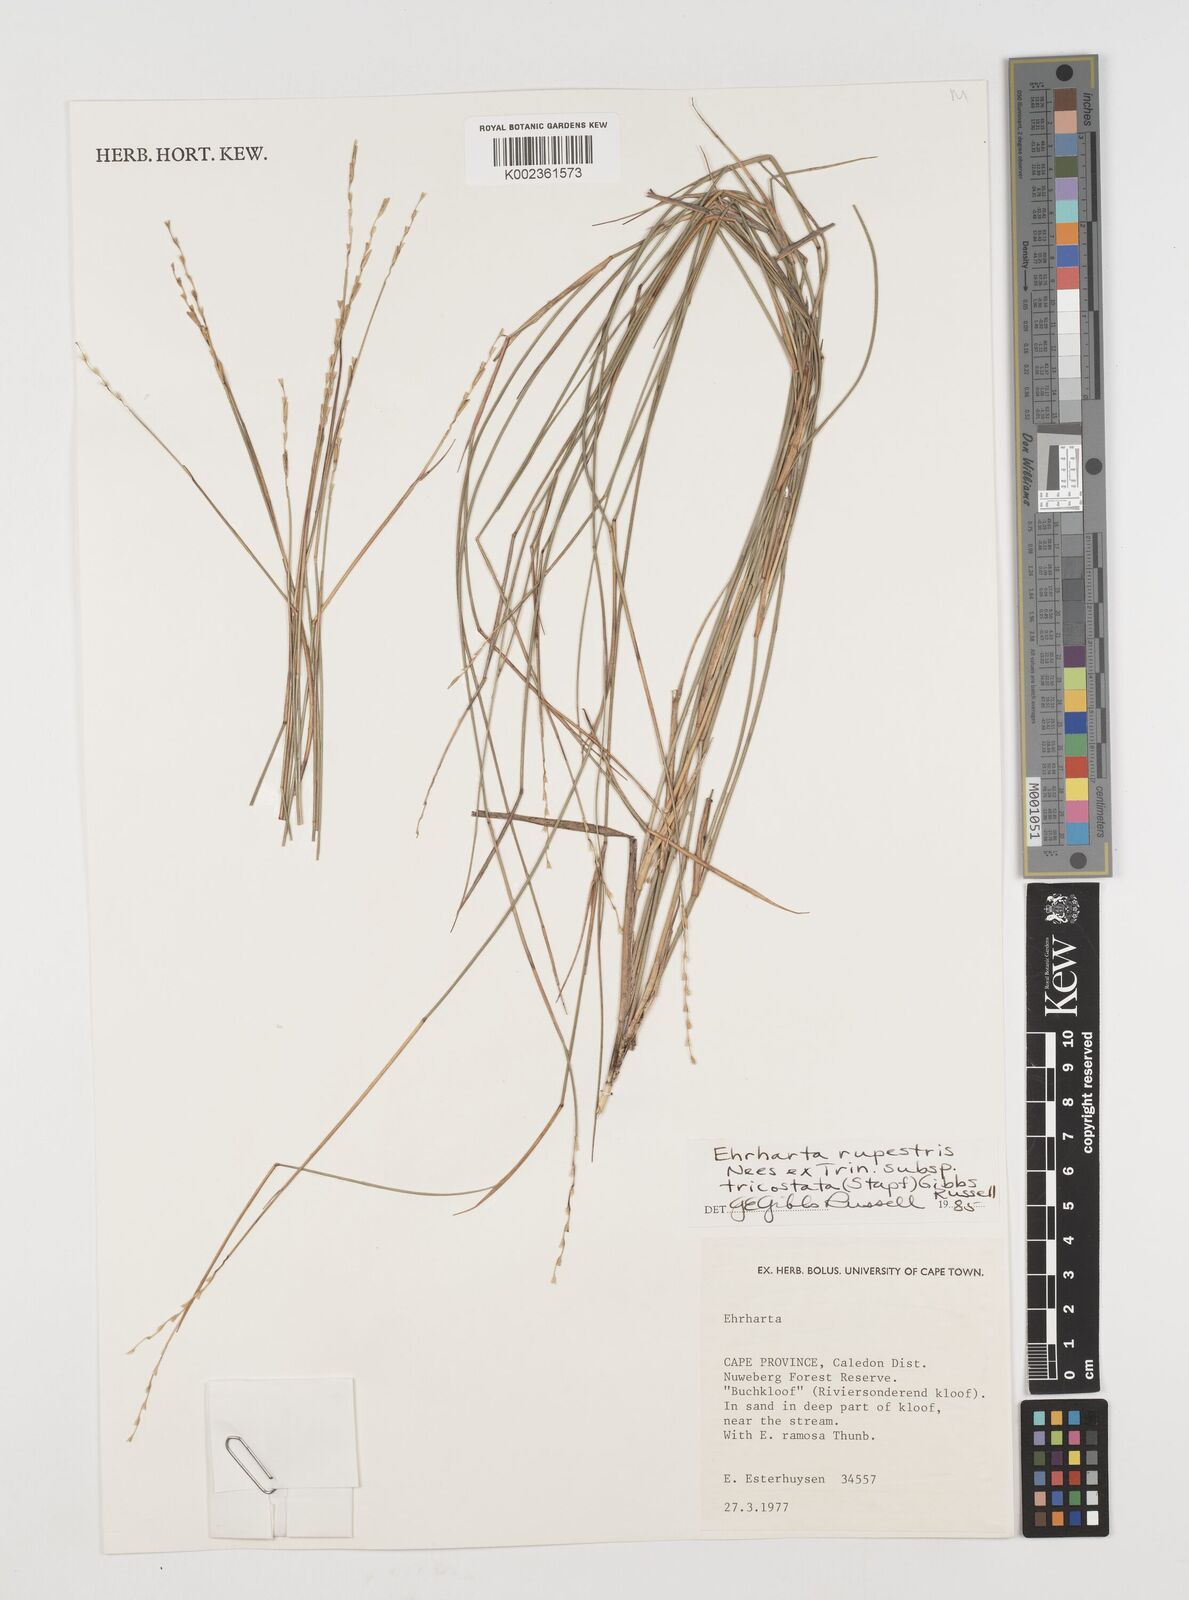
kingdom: Plantae
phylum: Tracheophyta
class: Liliopsida
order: Poales
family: Poaceae
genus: Ehrharta
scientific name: Ehrharta rupestris
